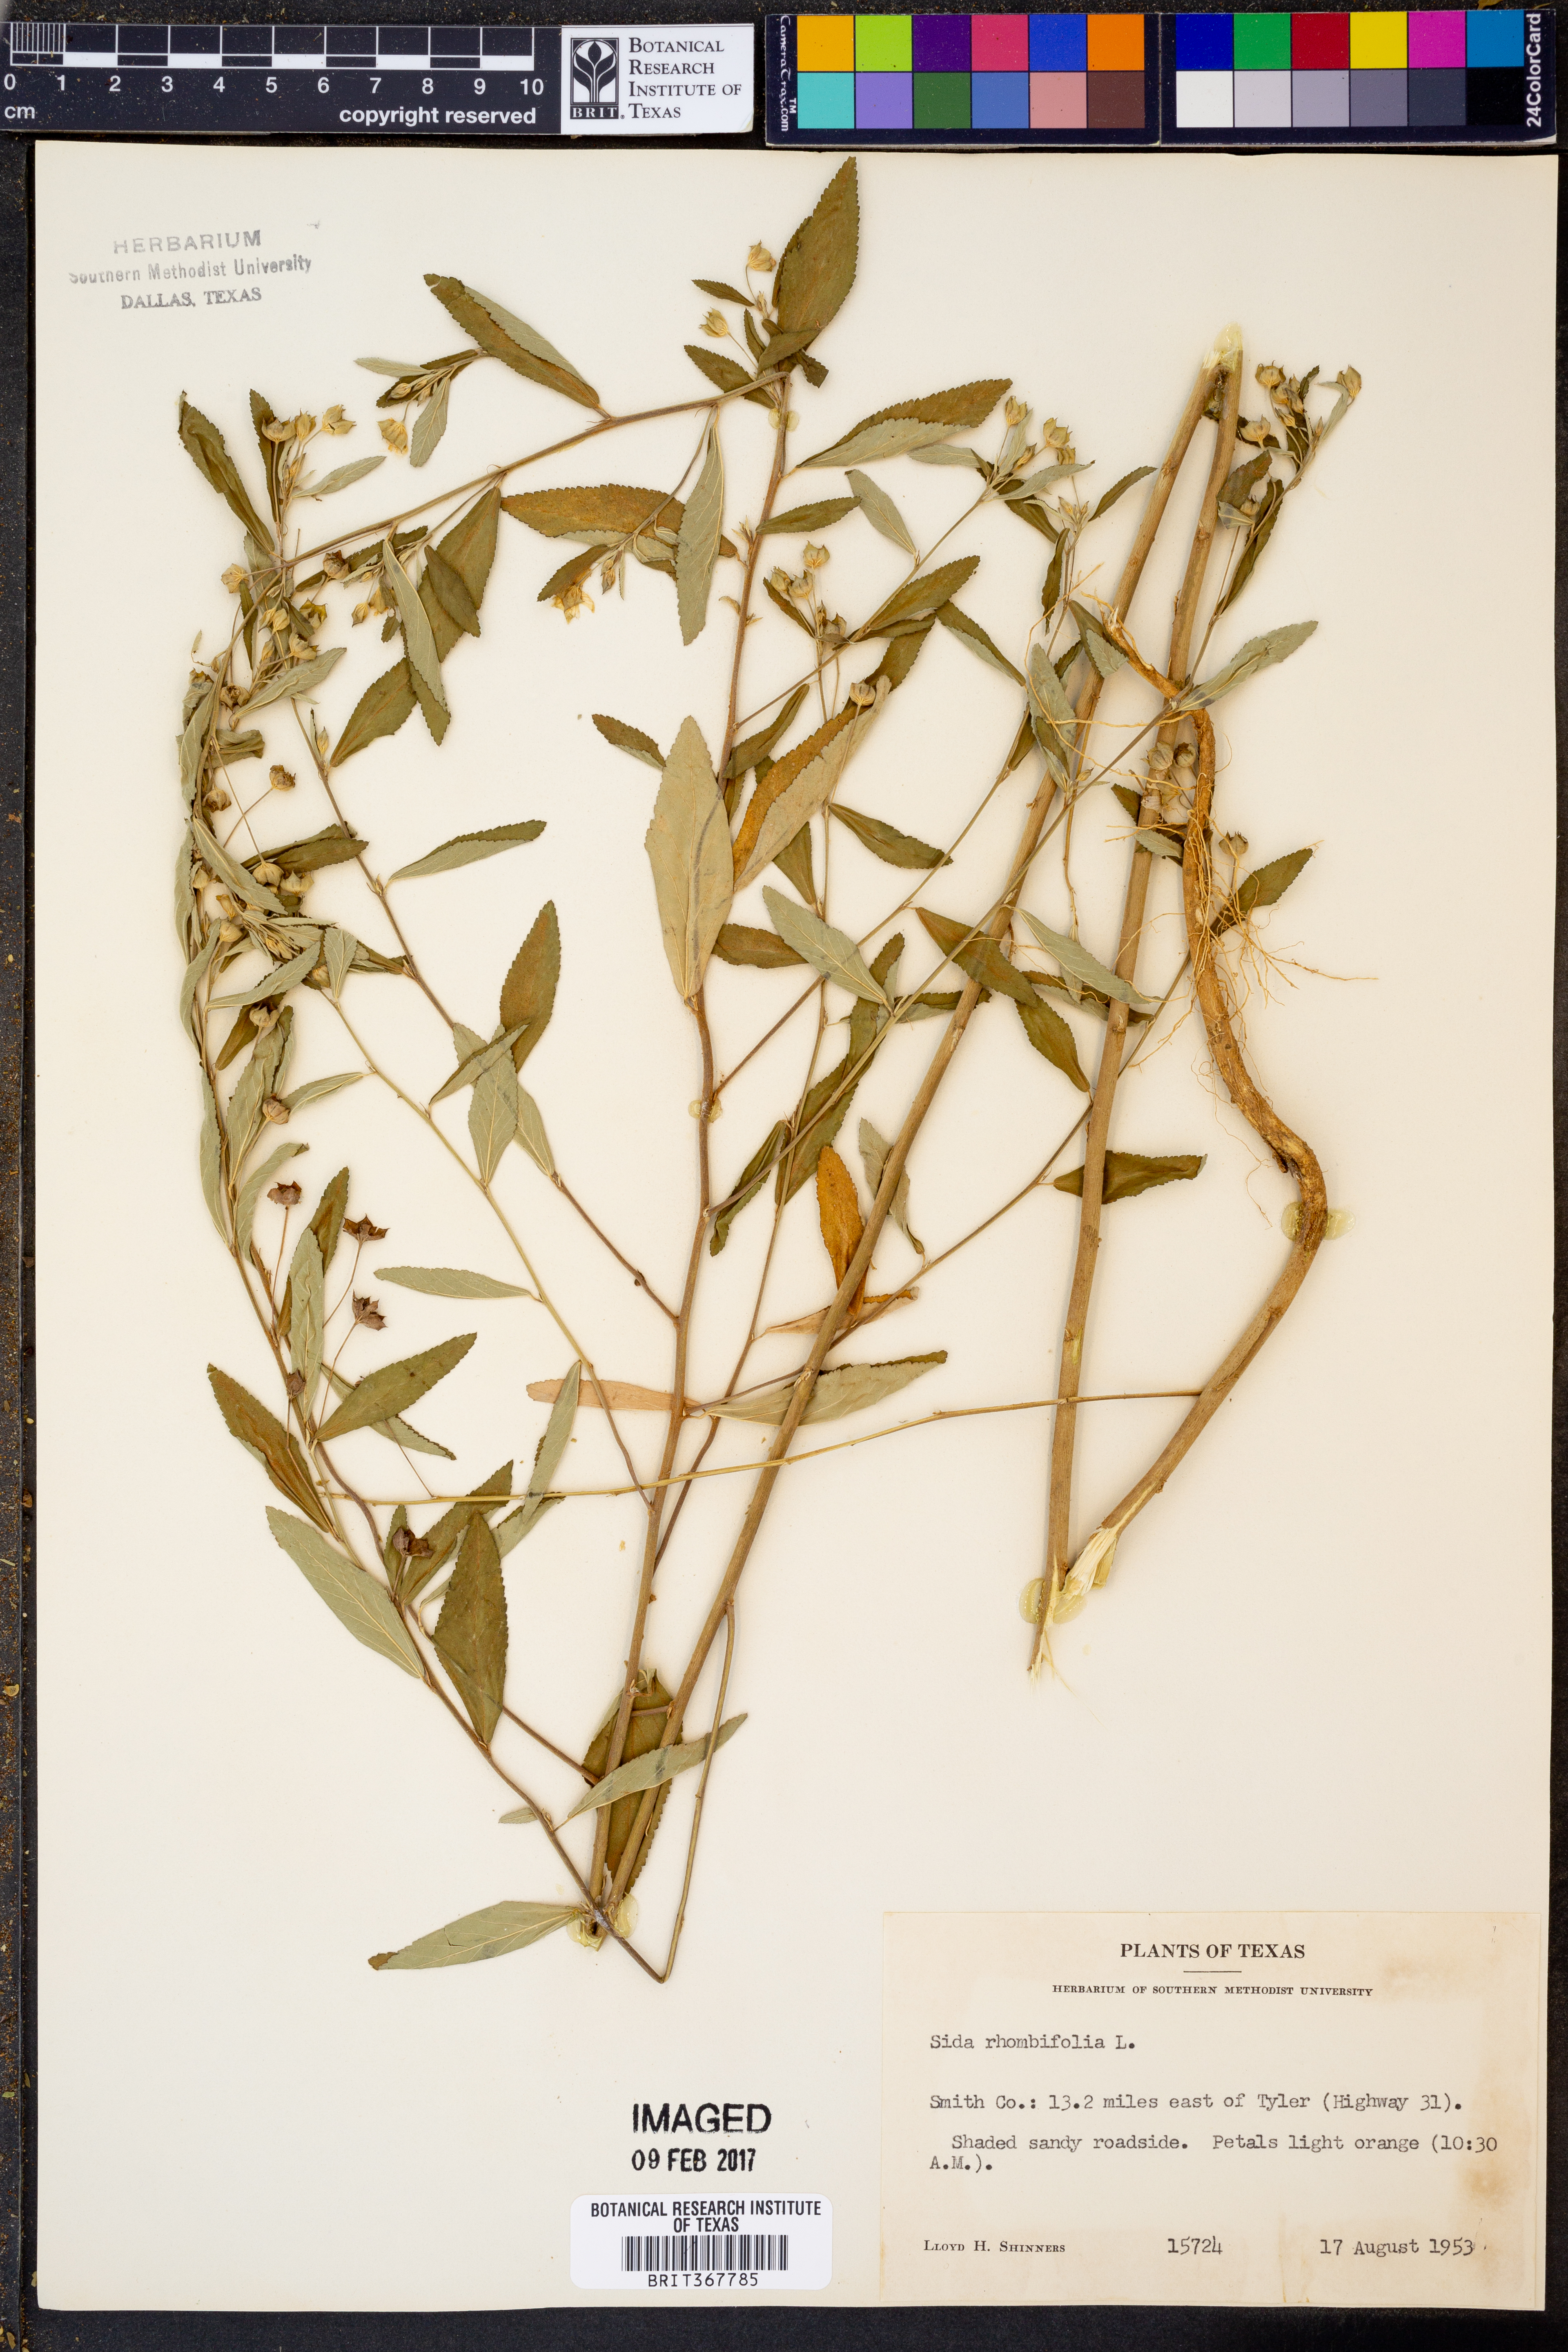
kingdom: Plantae
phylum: Tracheophyta
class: Magnoliopsida
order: Malvales
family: Malvaceae
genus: Sida
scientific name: Sida rhombifolia
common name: Queensland-hemp
